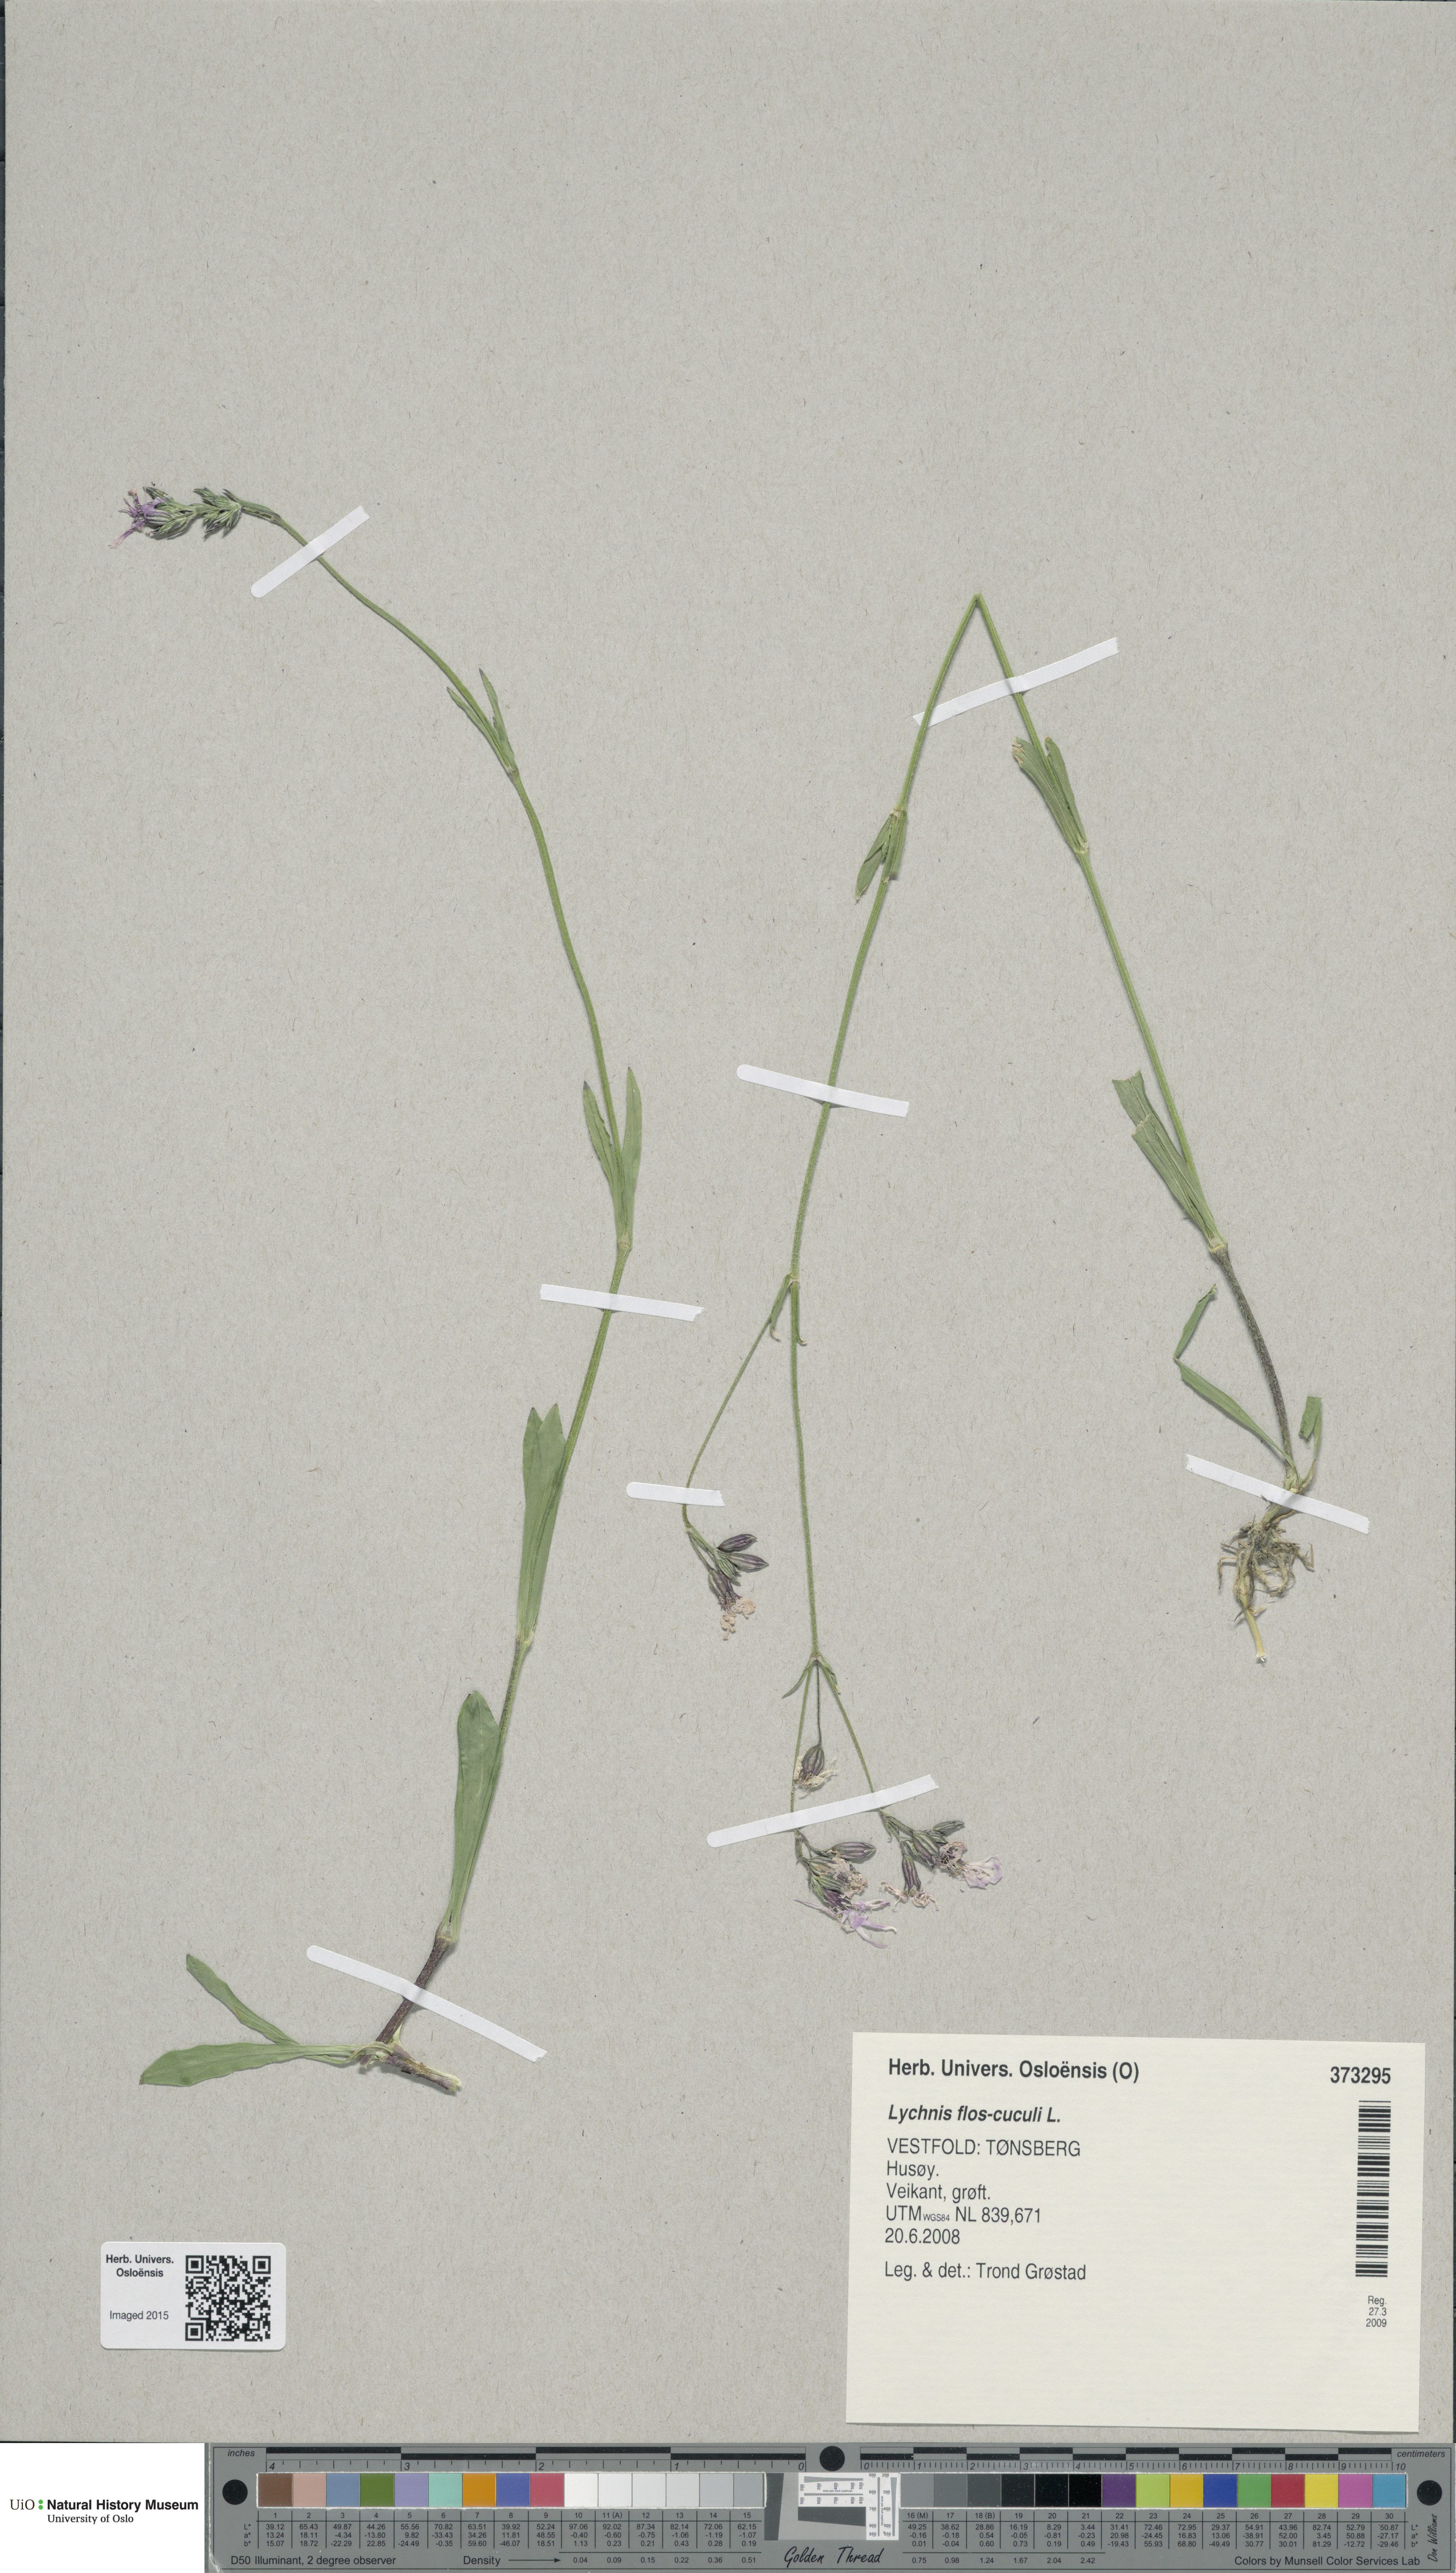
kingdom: Plantae
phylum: Tracheophyta
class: Magnoliopsida
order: Caryophyllales
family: Caryophyllaceae
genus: Silene
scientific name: Silene flos-cuculi
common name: Ragged-robin
